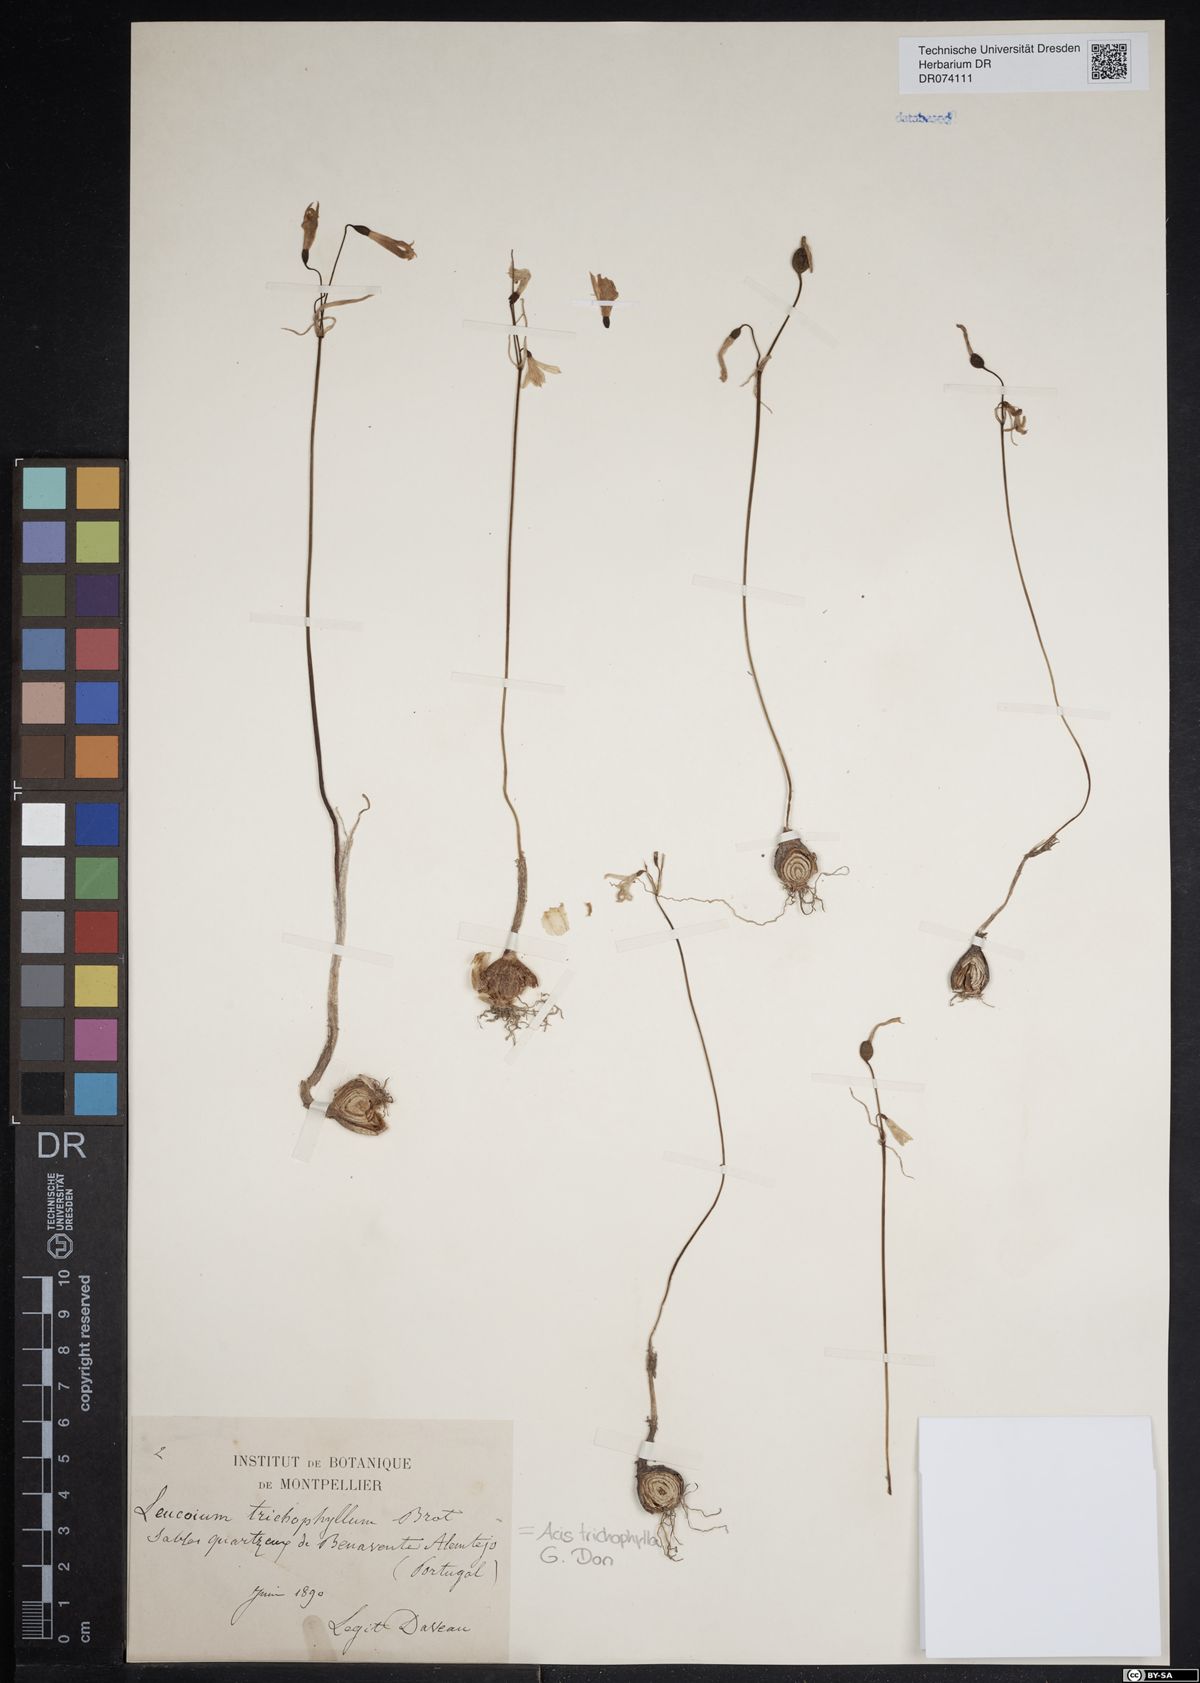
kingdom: Plantae
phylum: Tracheophyta
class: Liliopsida
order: Asparagales
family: Amaryllidaceae
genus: Acis
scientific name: Acis trichophylla
